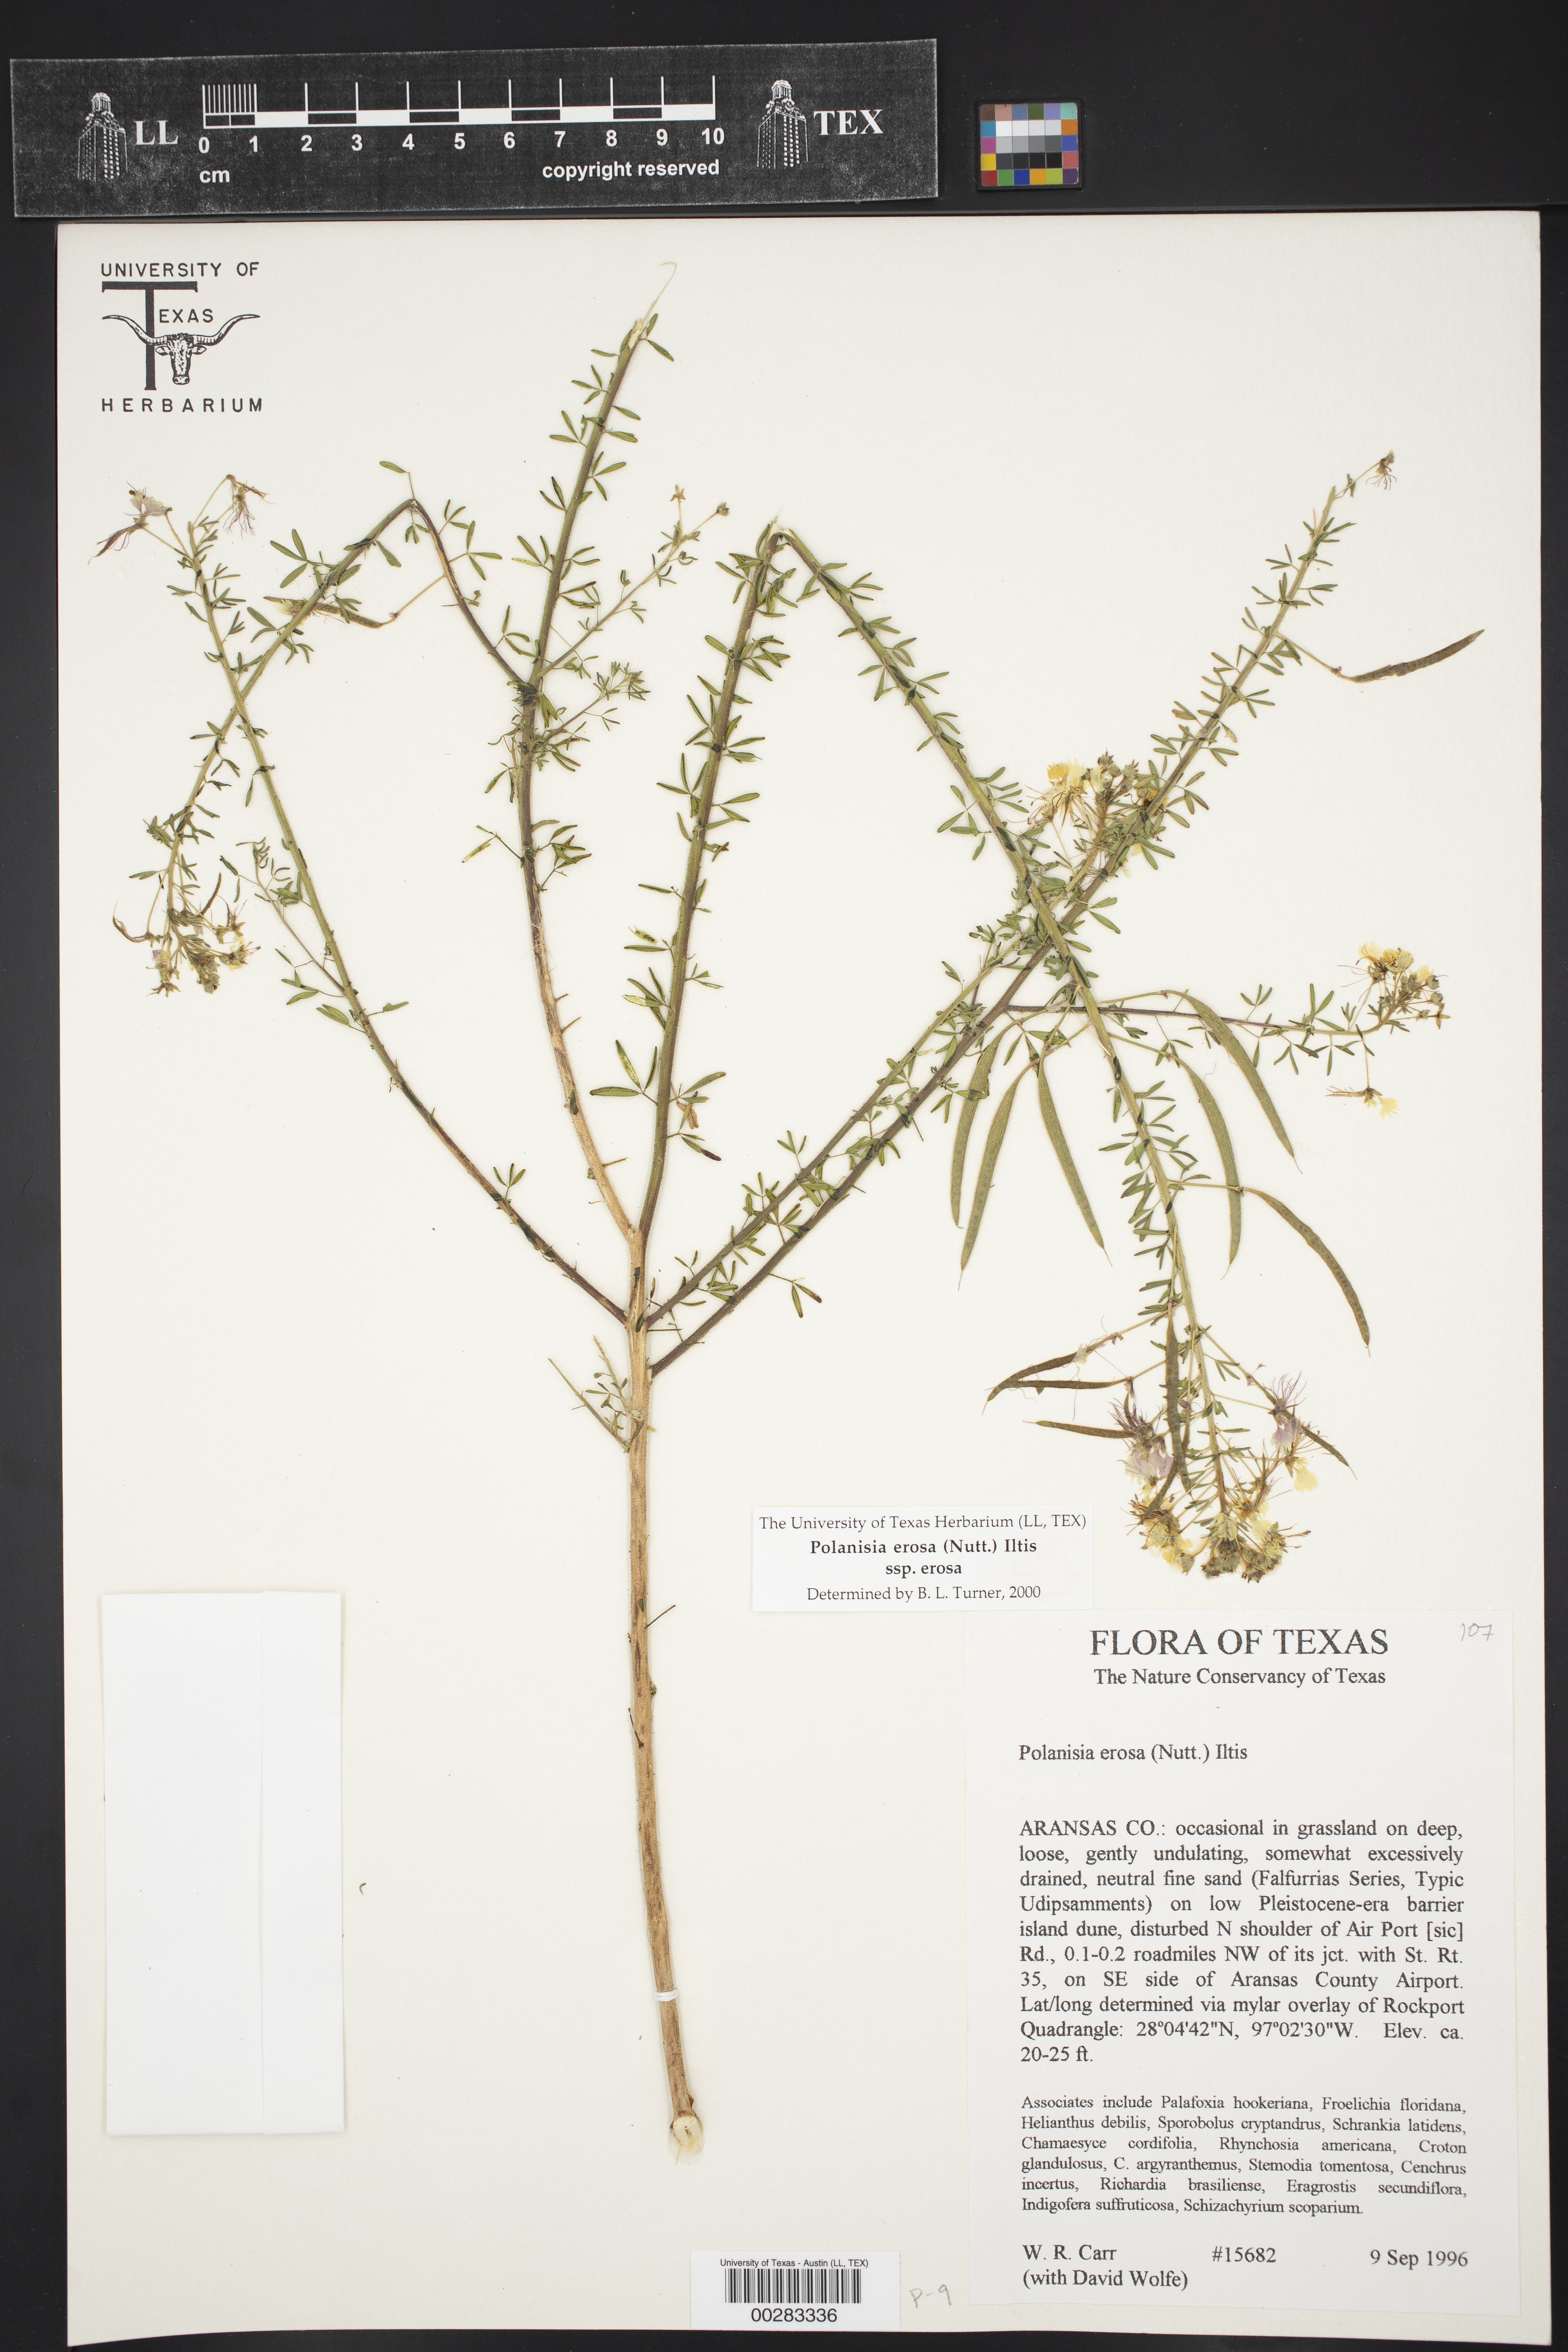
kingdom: Plantae
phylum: Tracheophyta
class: Magnoliopsida
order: Brassicales
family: Cleomaceae
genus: Polanisia
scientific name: Polanisia erosa
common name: Large clammyweed
